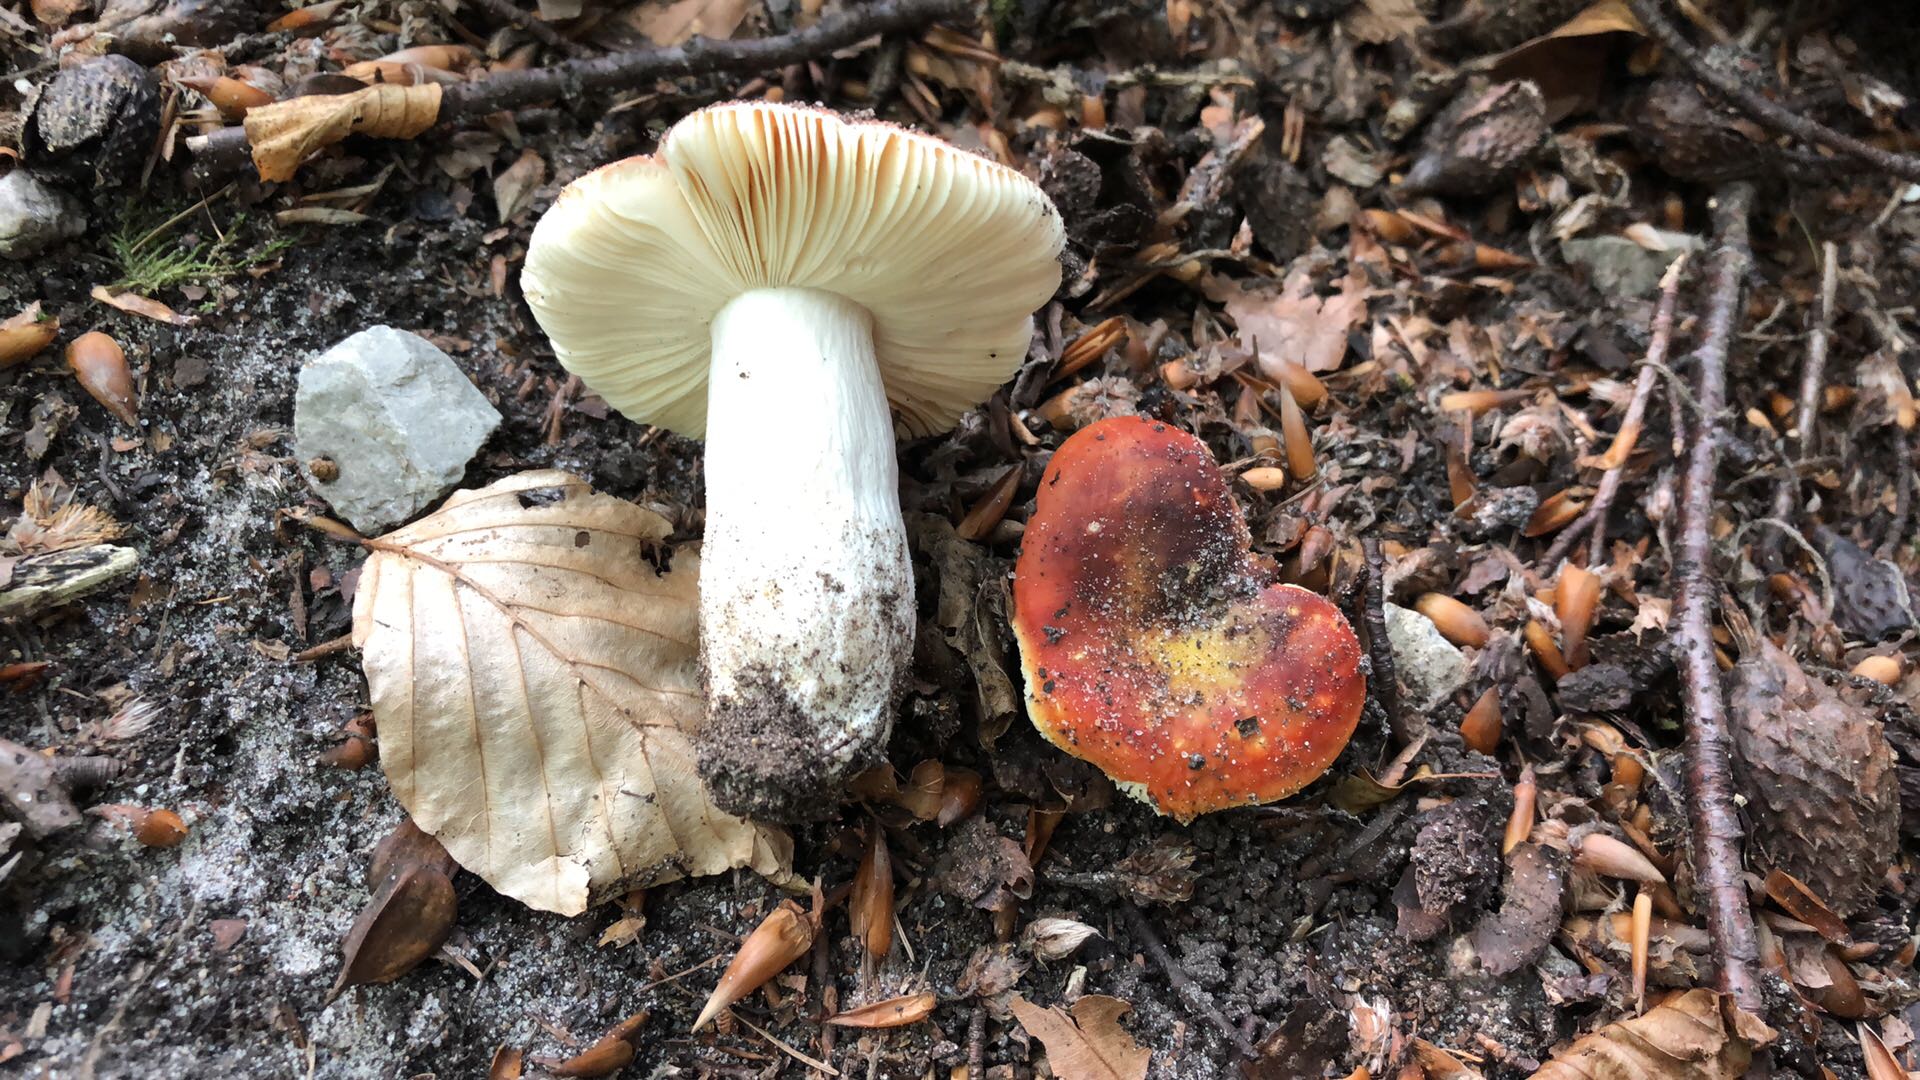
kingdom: Fungi
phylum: Basidiomycota
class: Agaricomycetes
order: Russulales
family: Russulaceae
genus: Russula
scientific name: Russula aurea
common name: gylden skørhat
